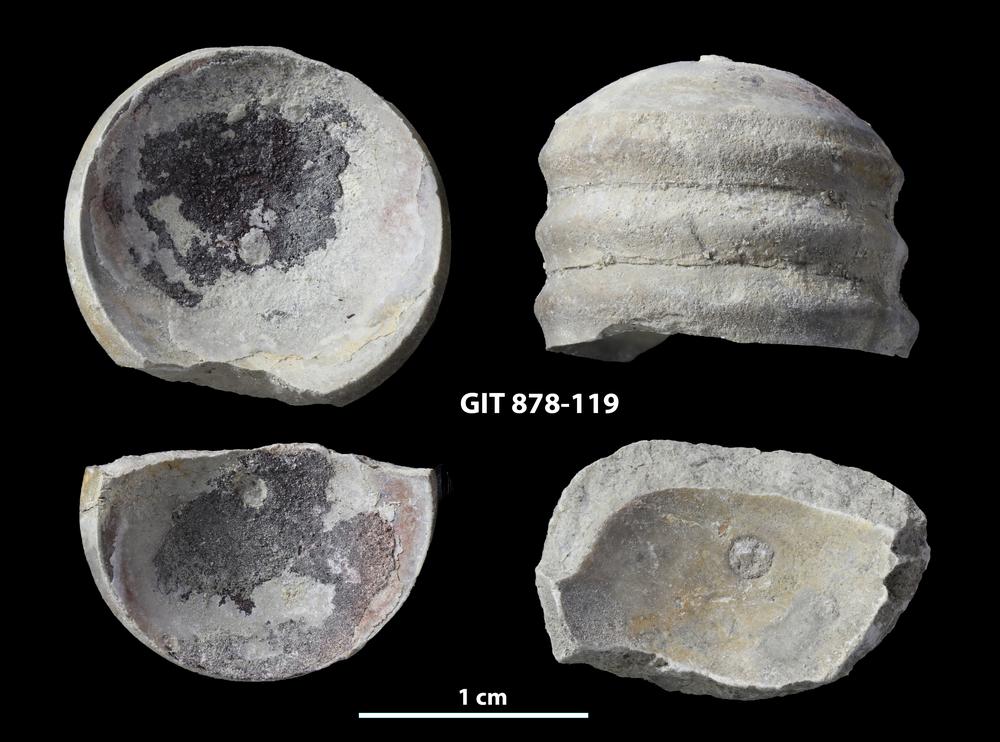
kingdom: Animalia
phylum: Mollusca
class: Cephalopoda
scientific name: Cephalopoda
